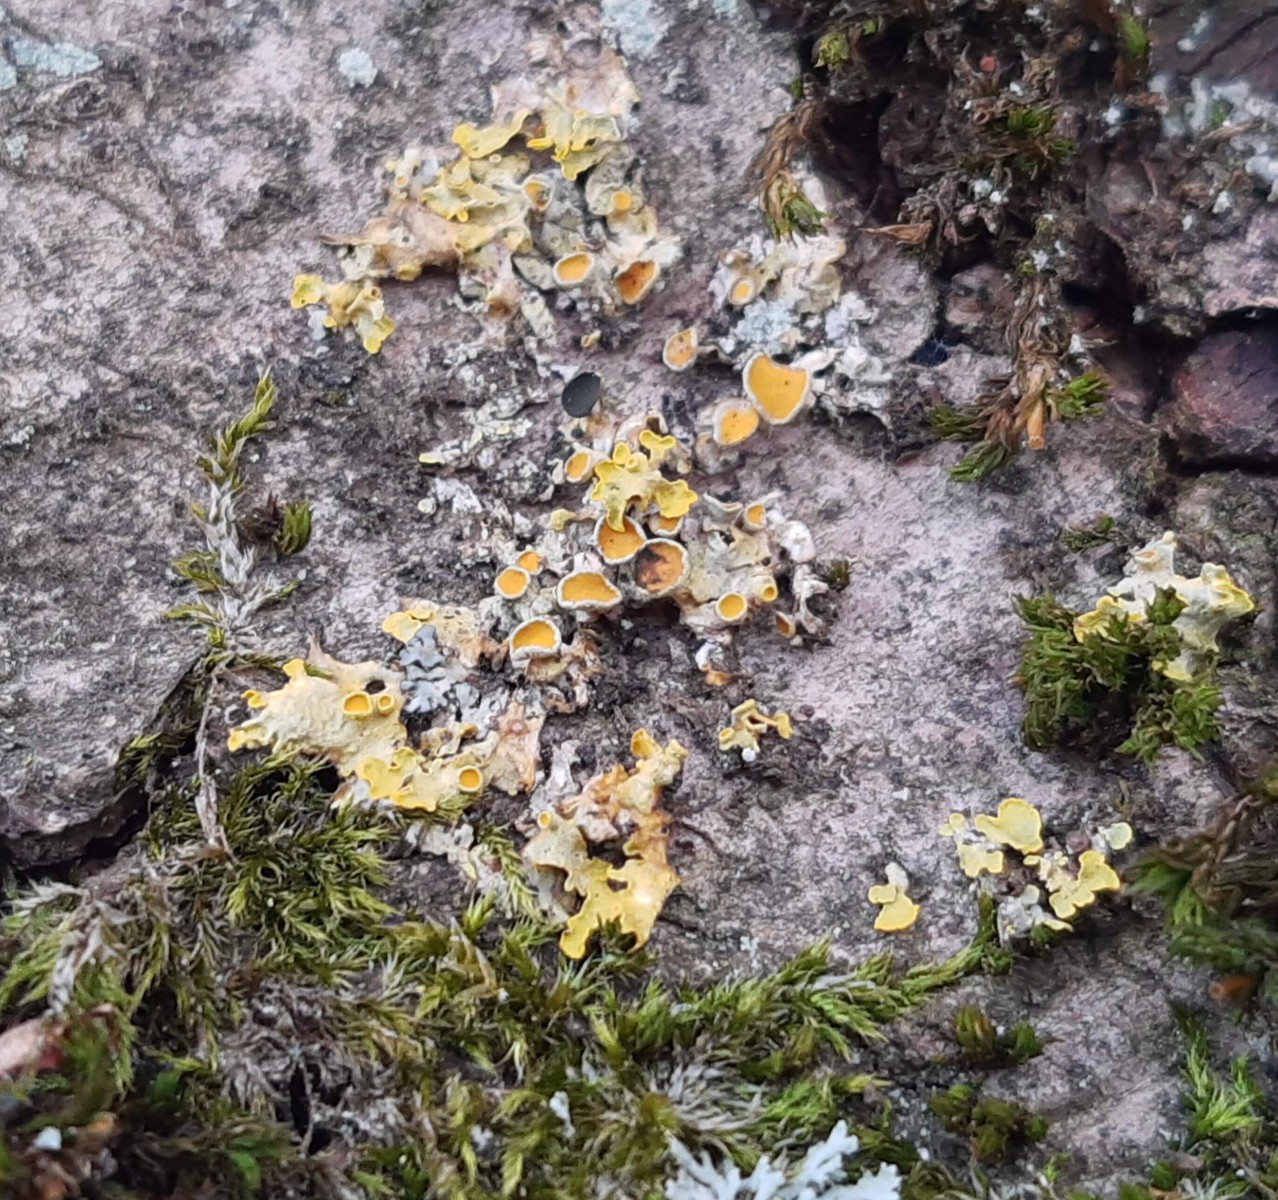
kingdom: Fungi
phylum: Ascomycota
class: Dothideomycetes
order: Mycosphaerellales
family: Teratosphaeriaceae
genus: Xanthoriicola
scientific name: Xanthoriicola physciae
